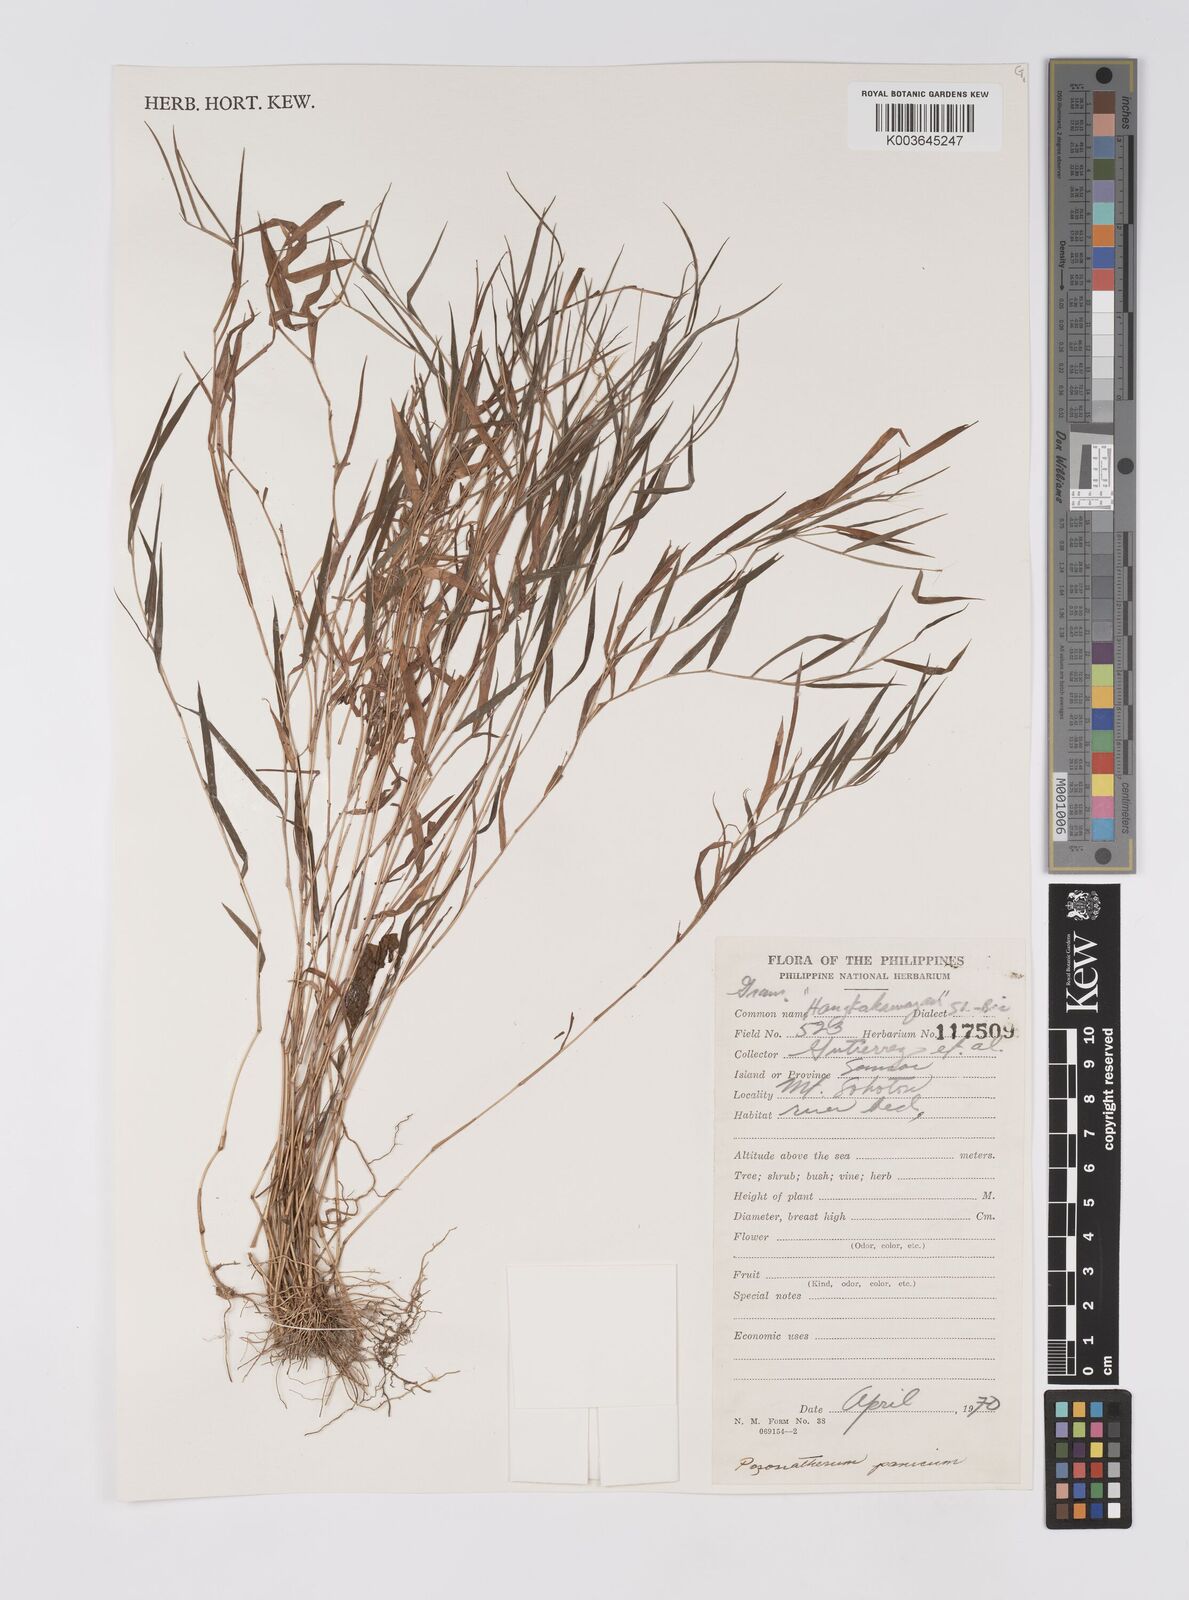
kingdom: Plantae
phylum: Tracheophyta
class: Liliopsida
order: Poales
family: Poaceae
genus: Pogonatherum
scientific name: Pogonatherum paniceum
